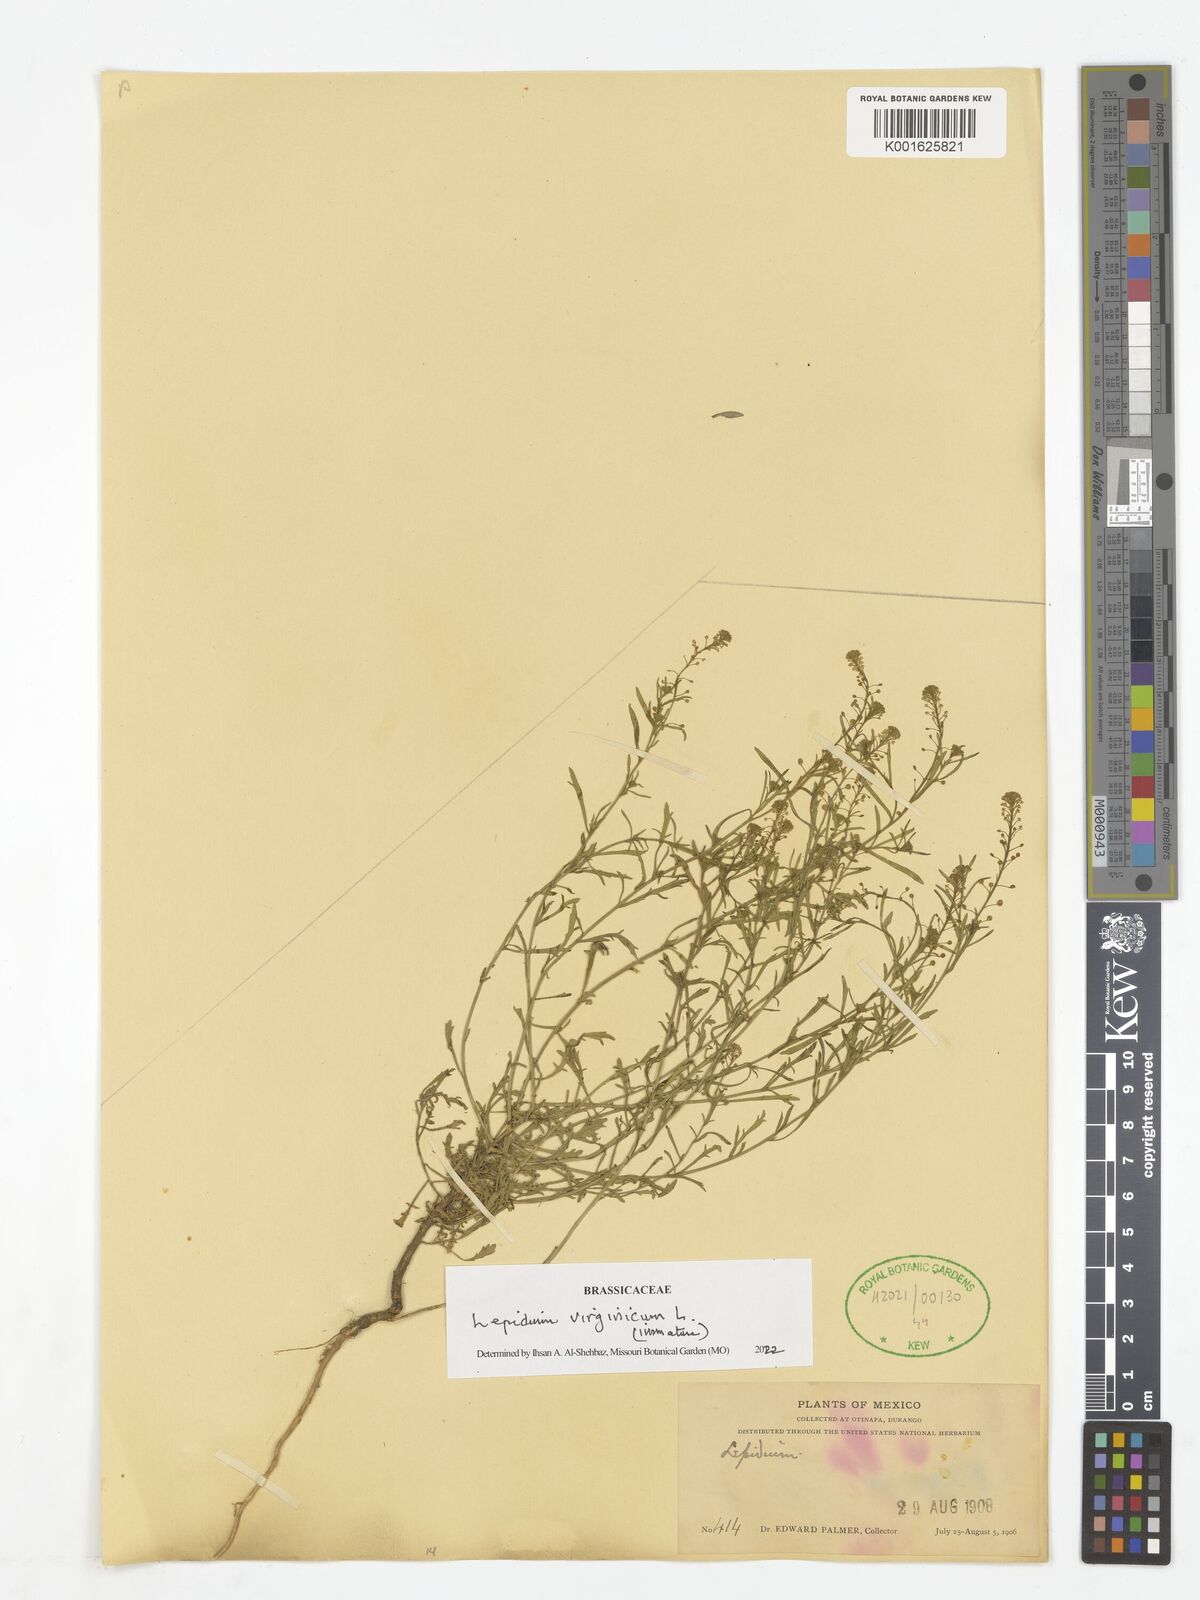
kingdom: Plantae
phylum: Tracheophyta
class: Magnoliopsida
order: Brassicales
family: Brassicaceae
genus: Lepidium
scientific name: Lepidium virginicum
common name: Least pepperwort
